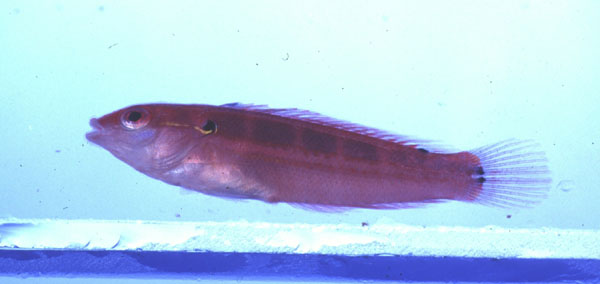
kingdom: Animalia
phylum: Chordata
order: Perciformes
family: Labridae
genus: Coris
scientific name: Coris caudimacula
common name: Spottail coris
